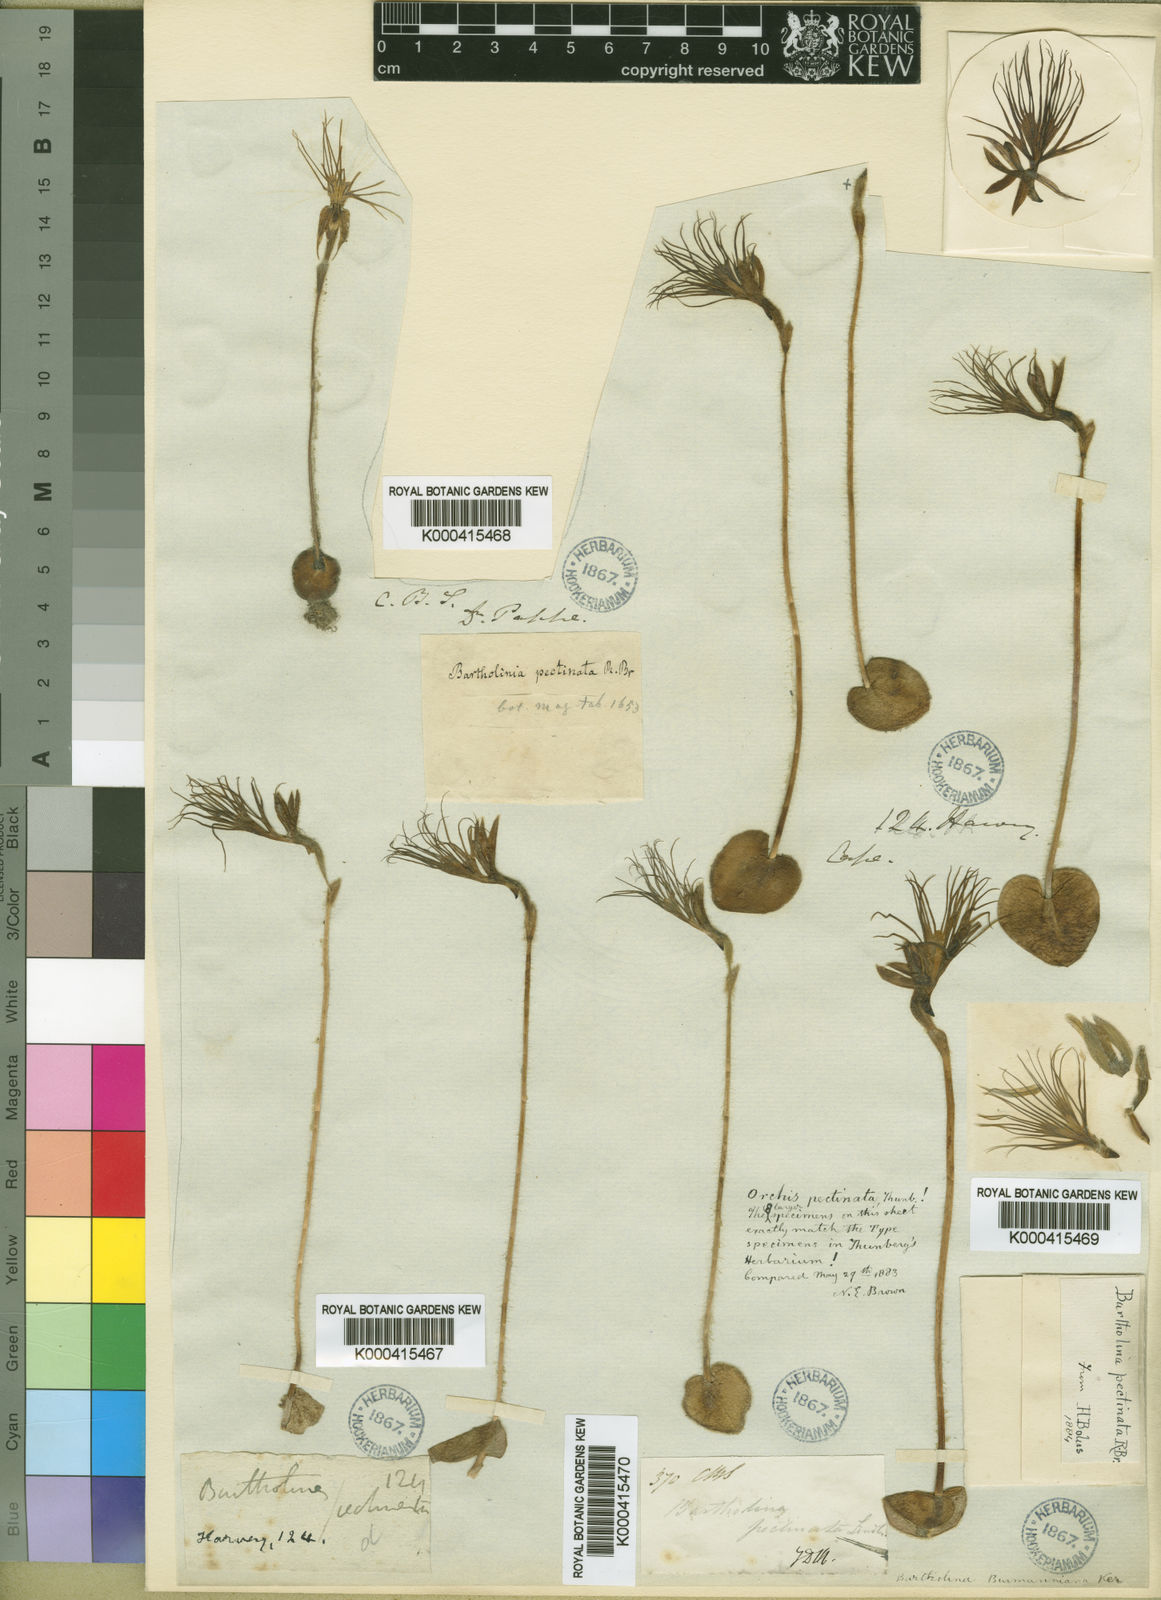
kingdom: Plantae
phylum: Tracheophyta
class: Liliopsida
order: Asparagales
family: Orchidaceae
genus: Holothrix
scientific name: Holothrix burmanniana
